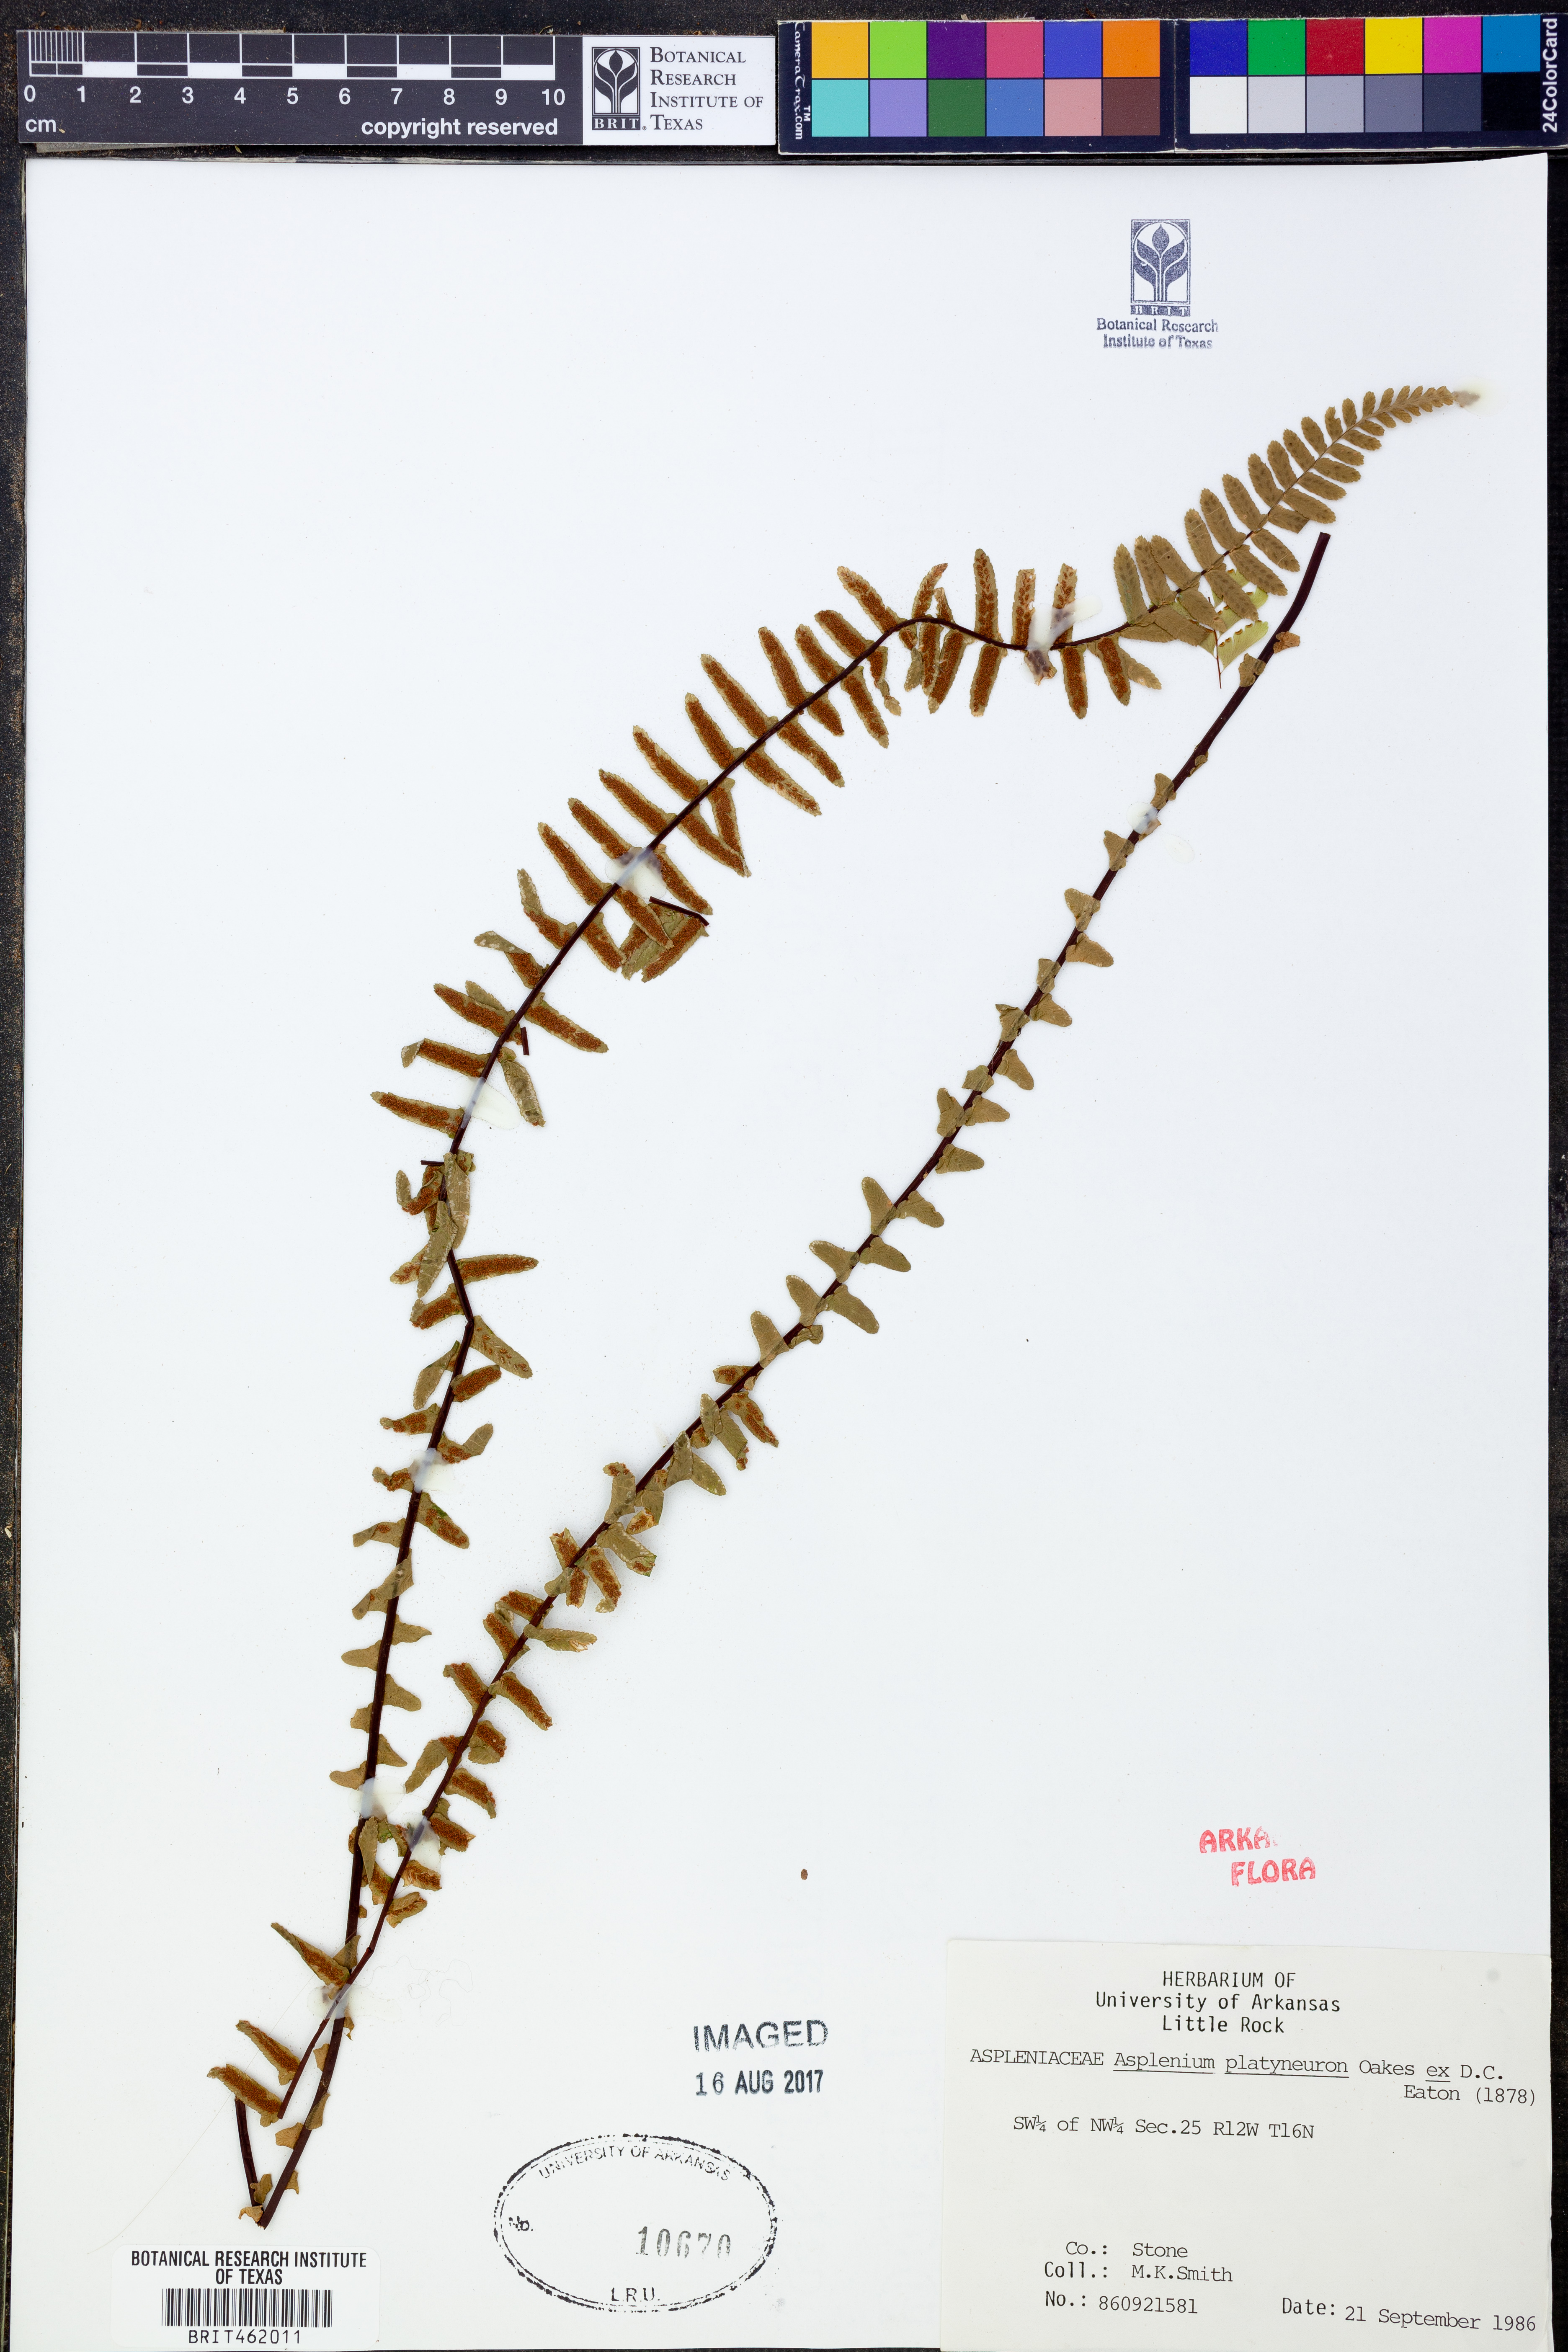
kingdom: Plantae
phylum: Tracheophyta
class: Polypodiopsida
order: Polypodiales
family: Aspleniaceae
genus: Asplenium
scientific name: Asplenium platyneuron
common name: Ebony spleenwort
